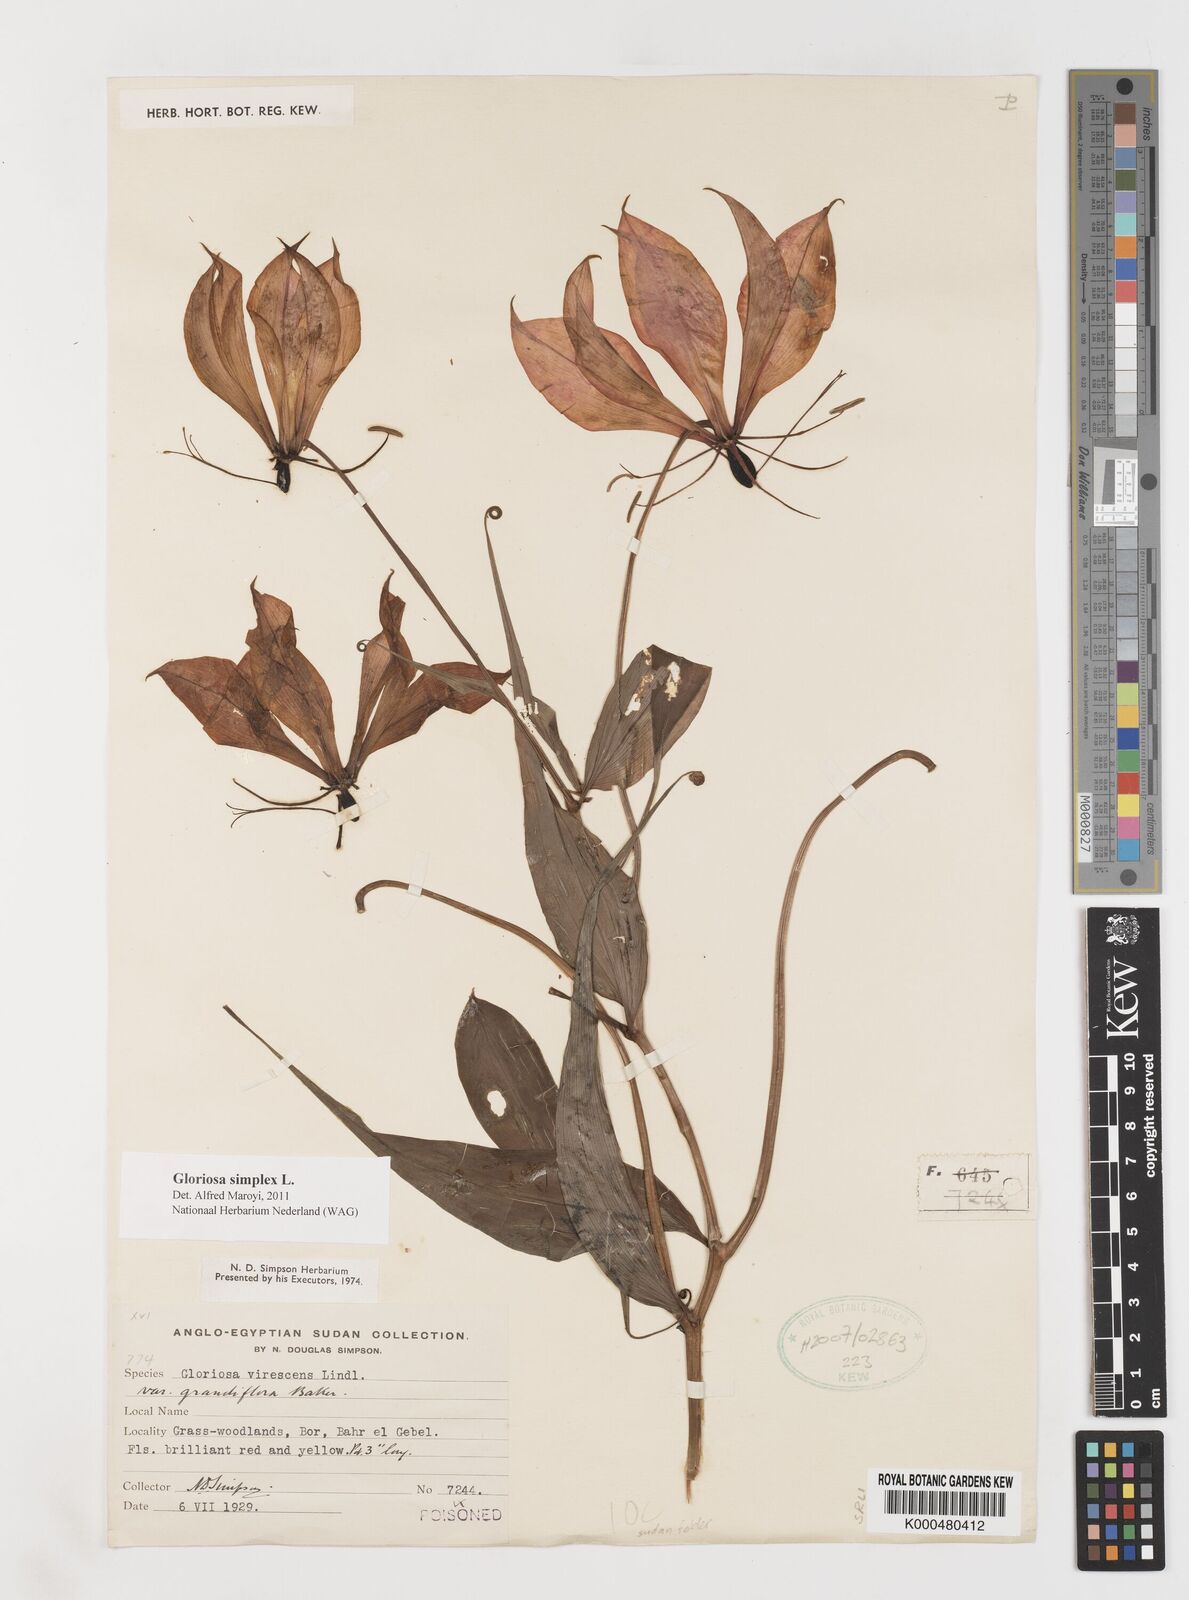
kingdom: Plantae
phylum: Tracheophyta
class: Liliopsida
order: Liliales
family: Colchicaceae
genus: Gloriosa
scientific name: Gloriosa simplex
